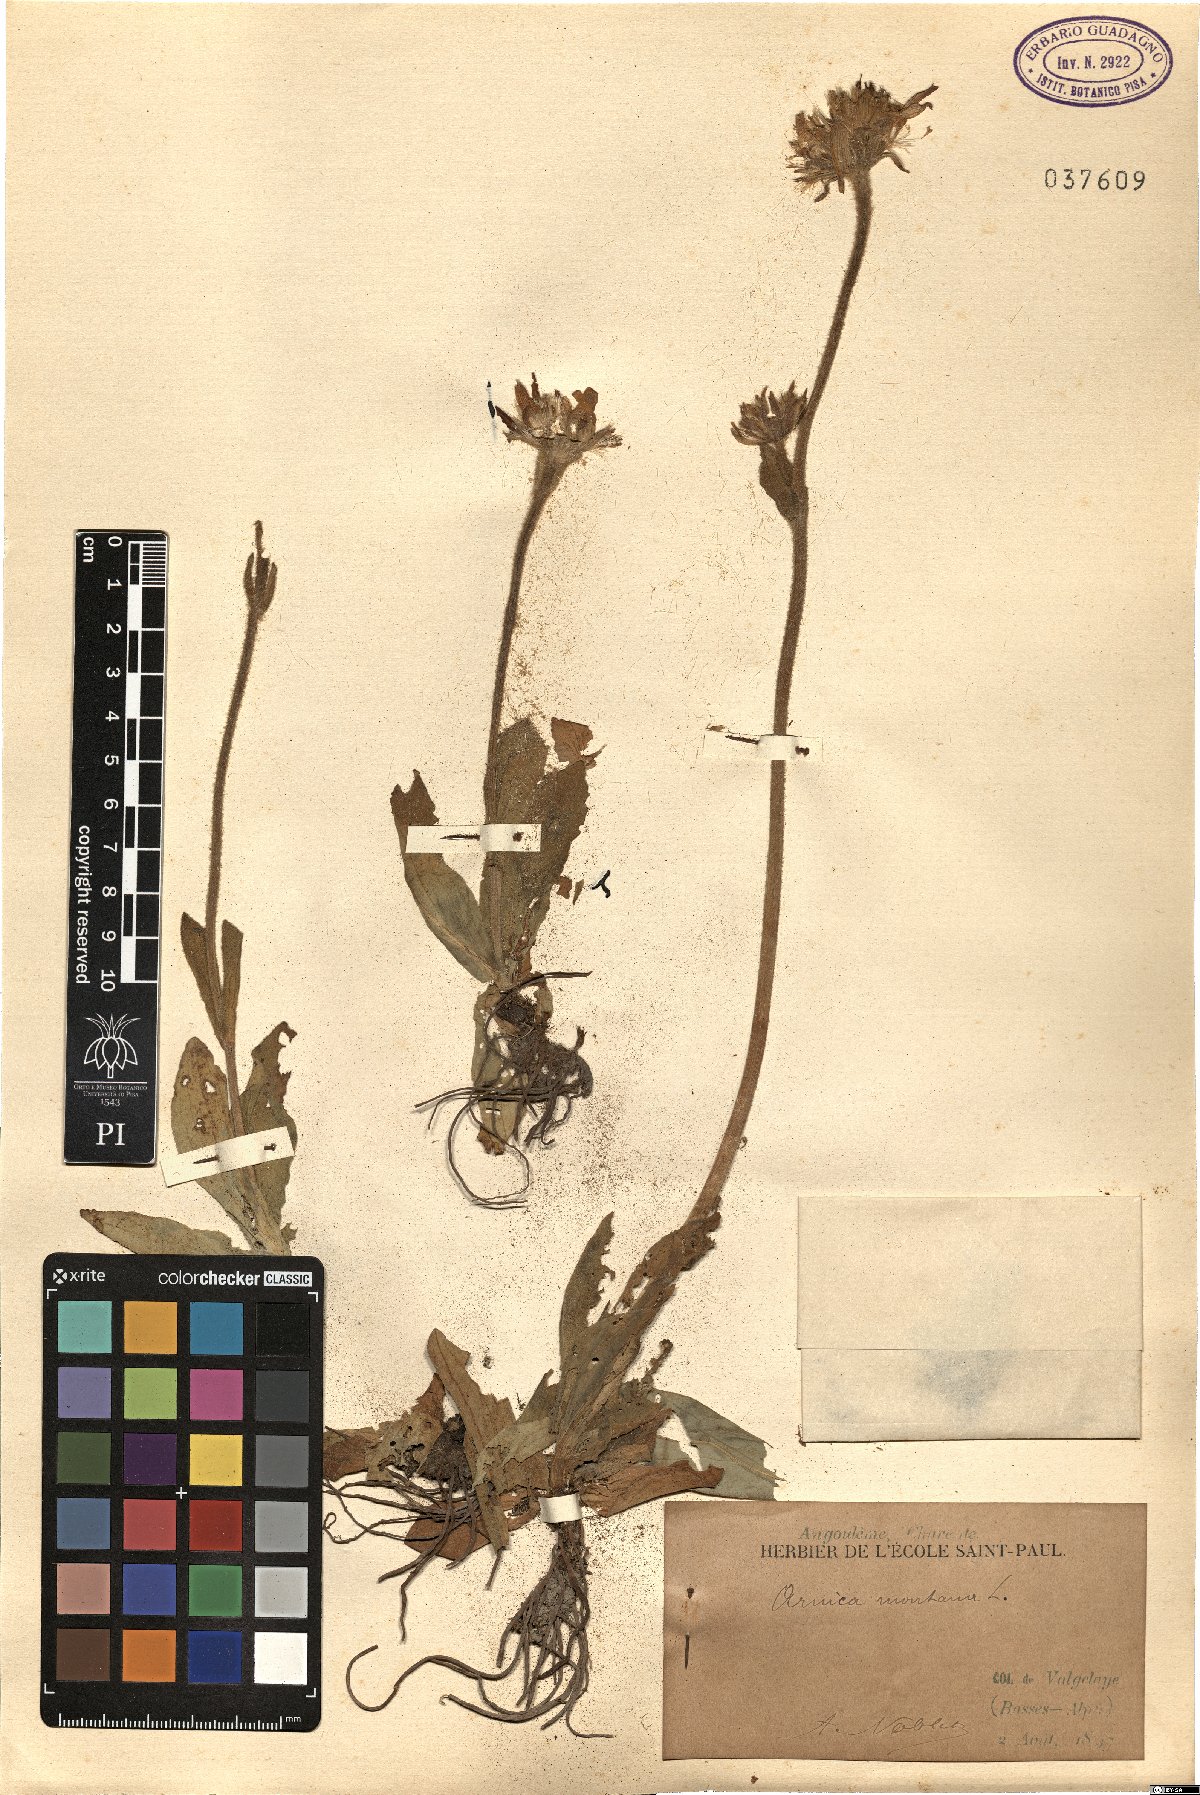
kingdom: Plantae
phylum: Tracheophyta
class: Magnoliopsida
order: Asterales
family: Asteraceae
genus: Arnica
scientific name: Arnica montana
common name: Leopard's bane
